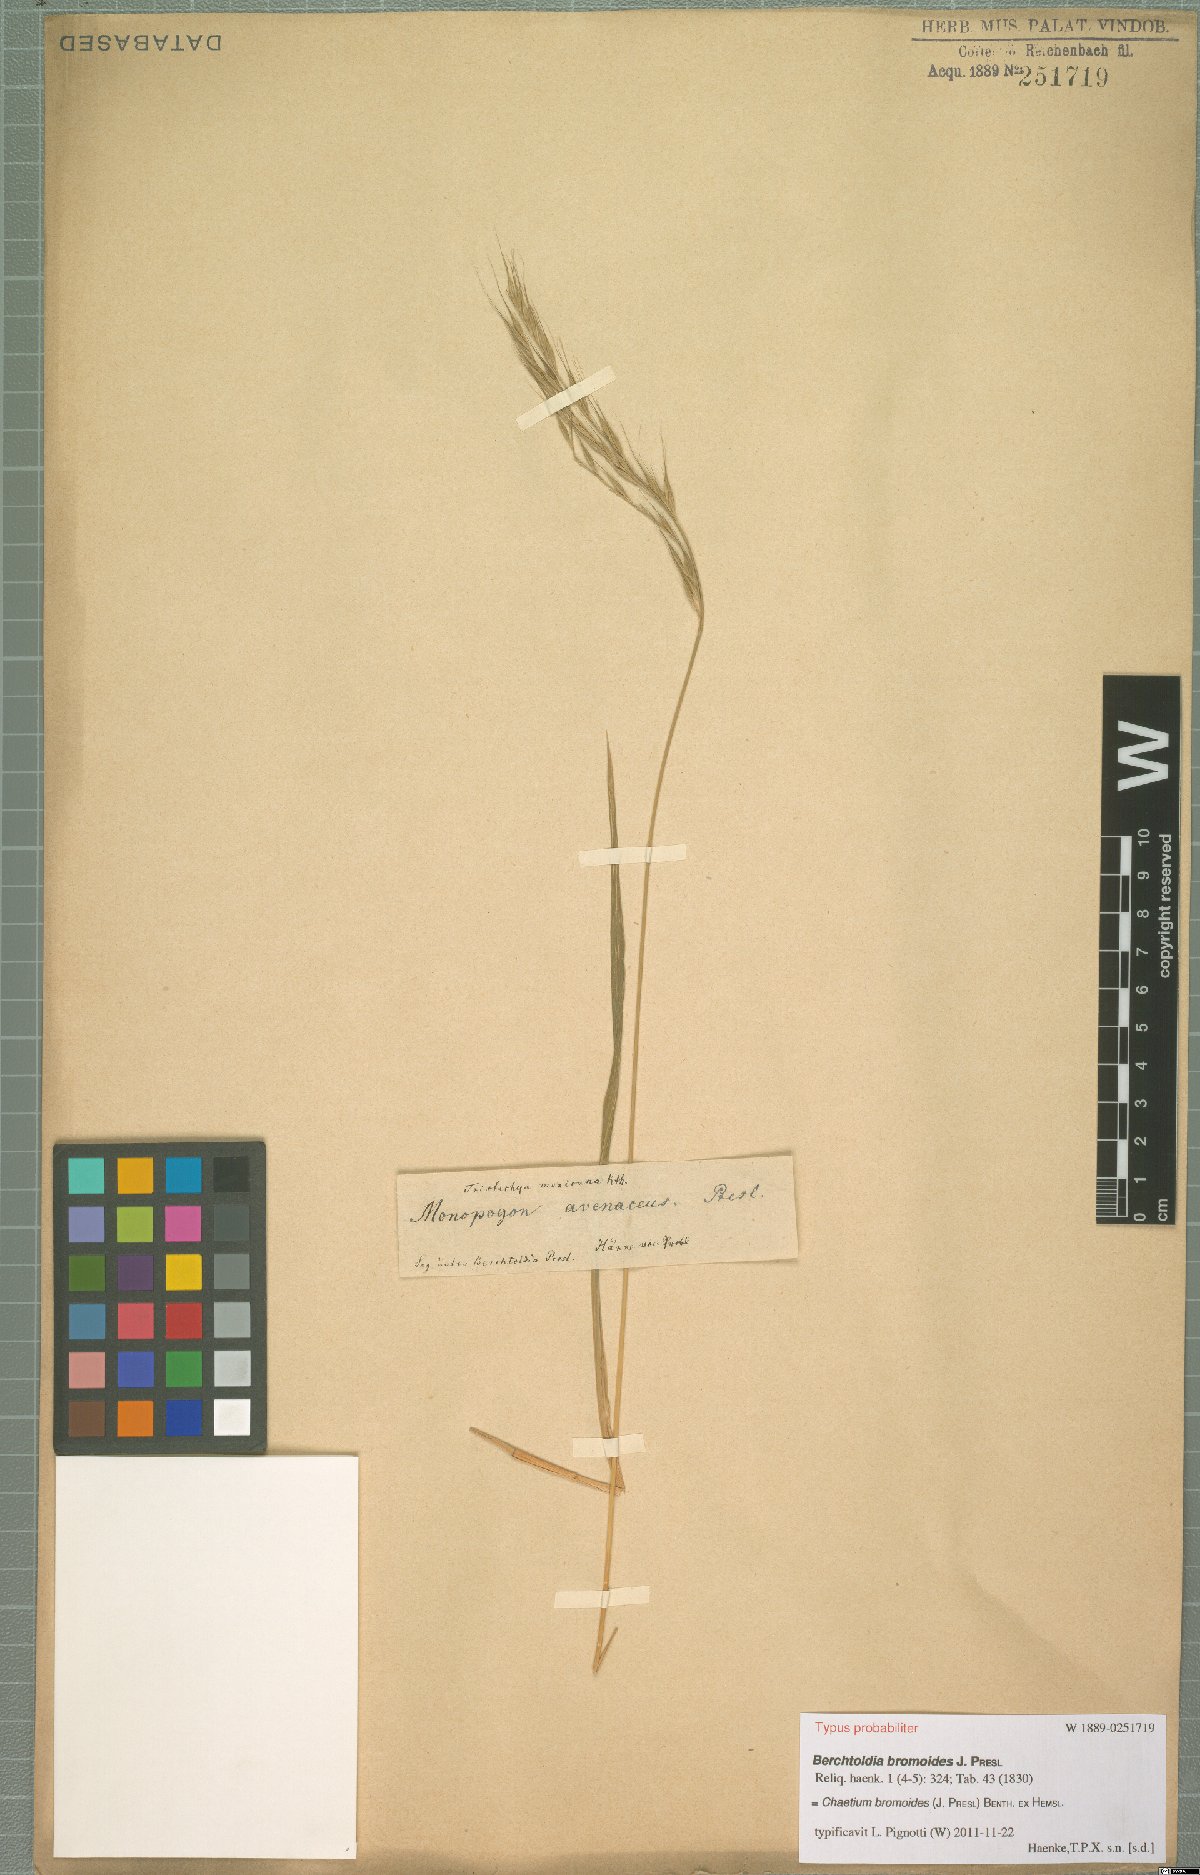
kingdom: Plantae
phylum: Tracheophyta
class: Liliopsida
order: Poales
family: Poaceae
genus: Chaetium
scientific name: Chaetium bromoides
